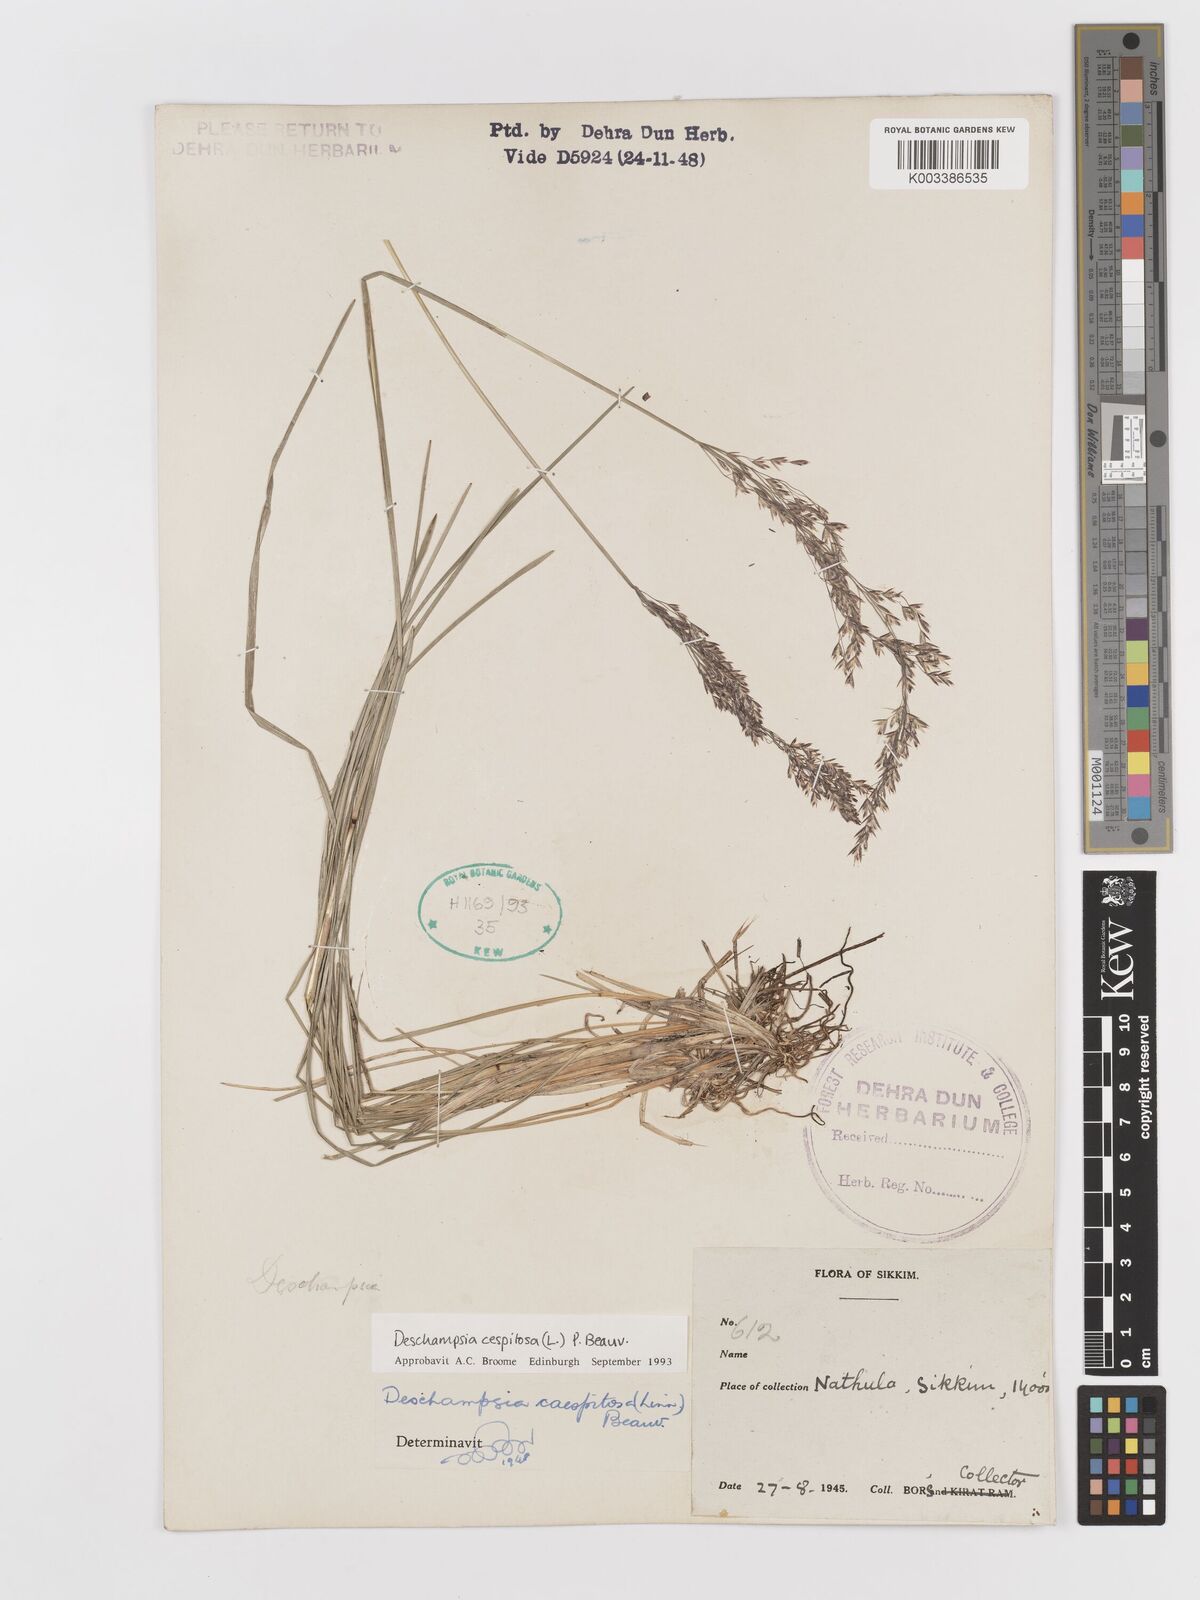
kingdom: Plantae
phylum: Tracheophyta
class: Liliopsida
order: Poales
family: Poaceae
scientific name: Poaceae
